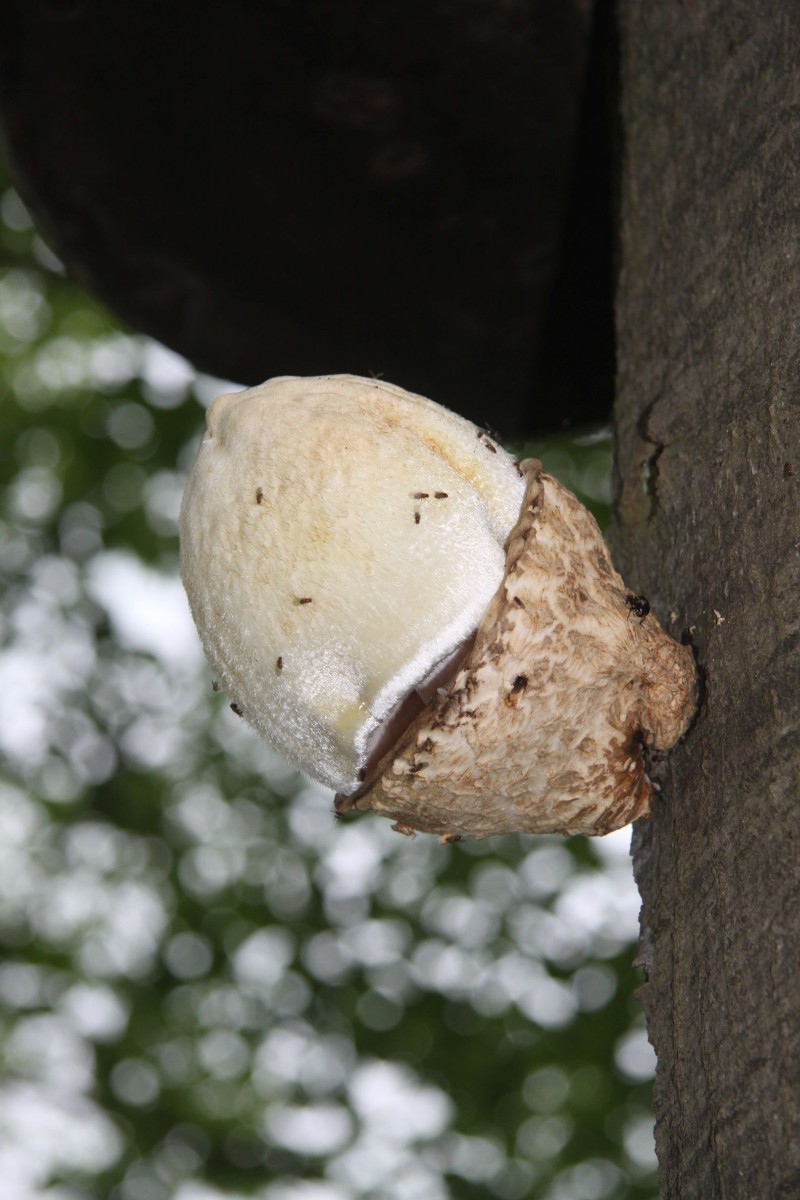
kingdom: Fungi
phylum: Basidiomycota
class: Agaricomycetes
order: Agaricales
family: Pluteaceae
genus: Volvariella
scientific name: Volvariella bombycina
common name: silkehåret posesvamp
